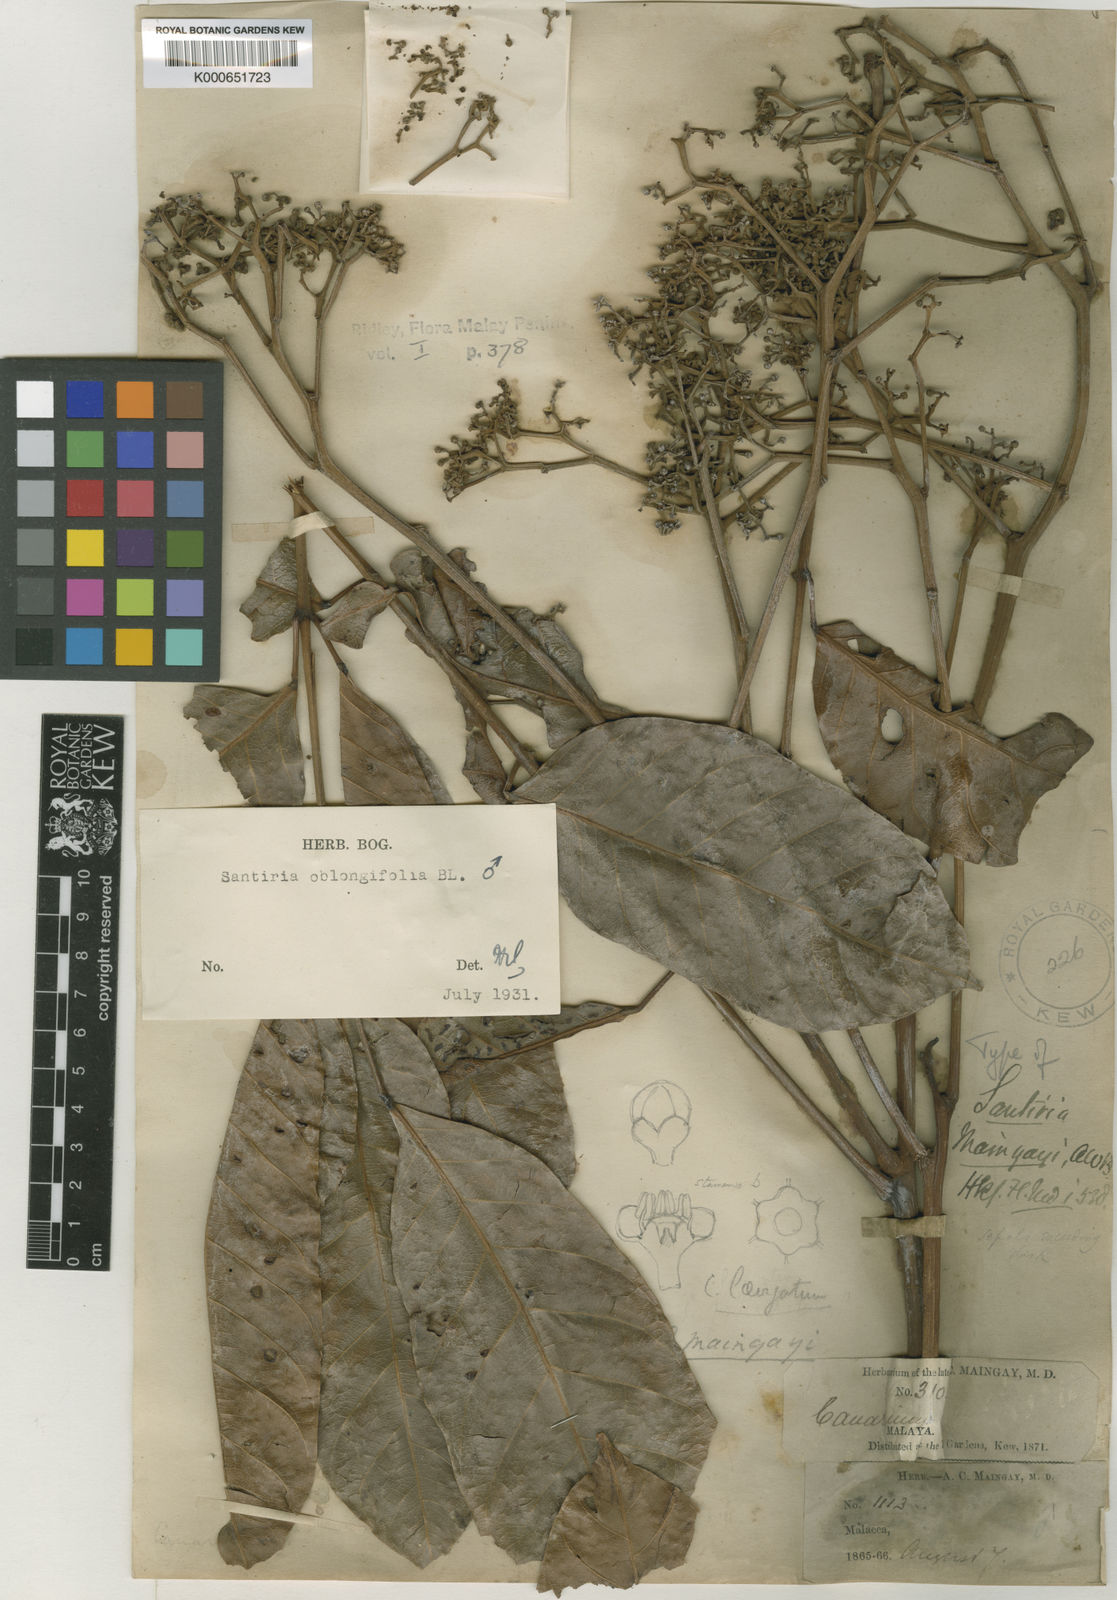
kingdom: Plantae
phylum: Tracheophyta
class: Magnoliopsida
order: Sapindales
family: Burseraceae
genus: Santiria
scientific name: Santiria oblongifolia
